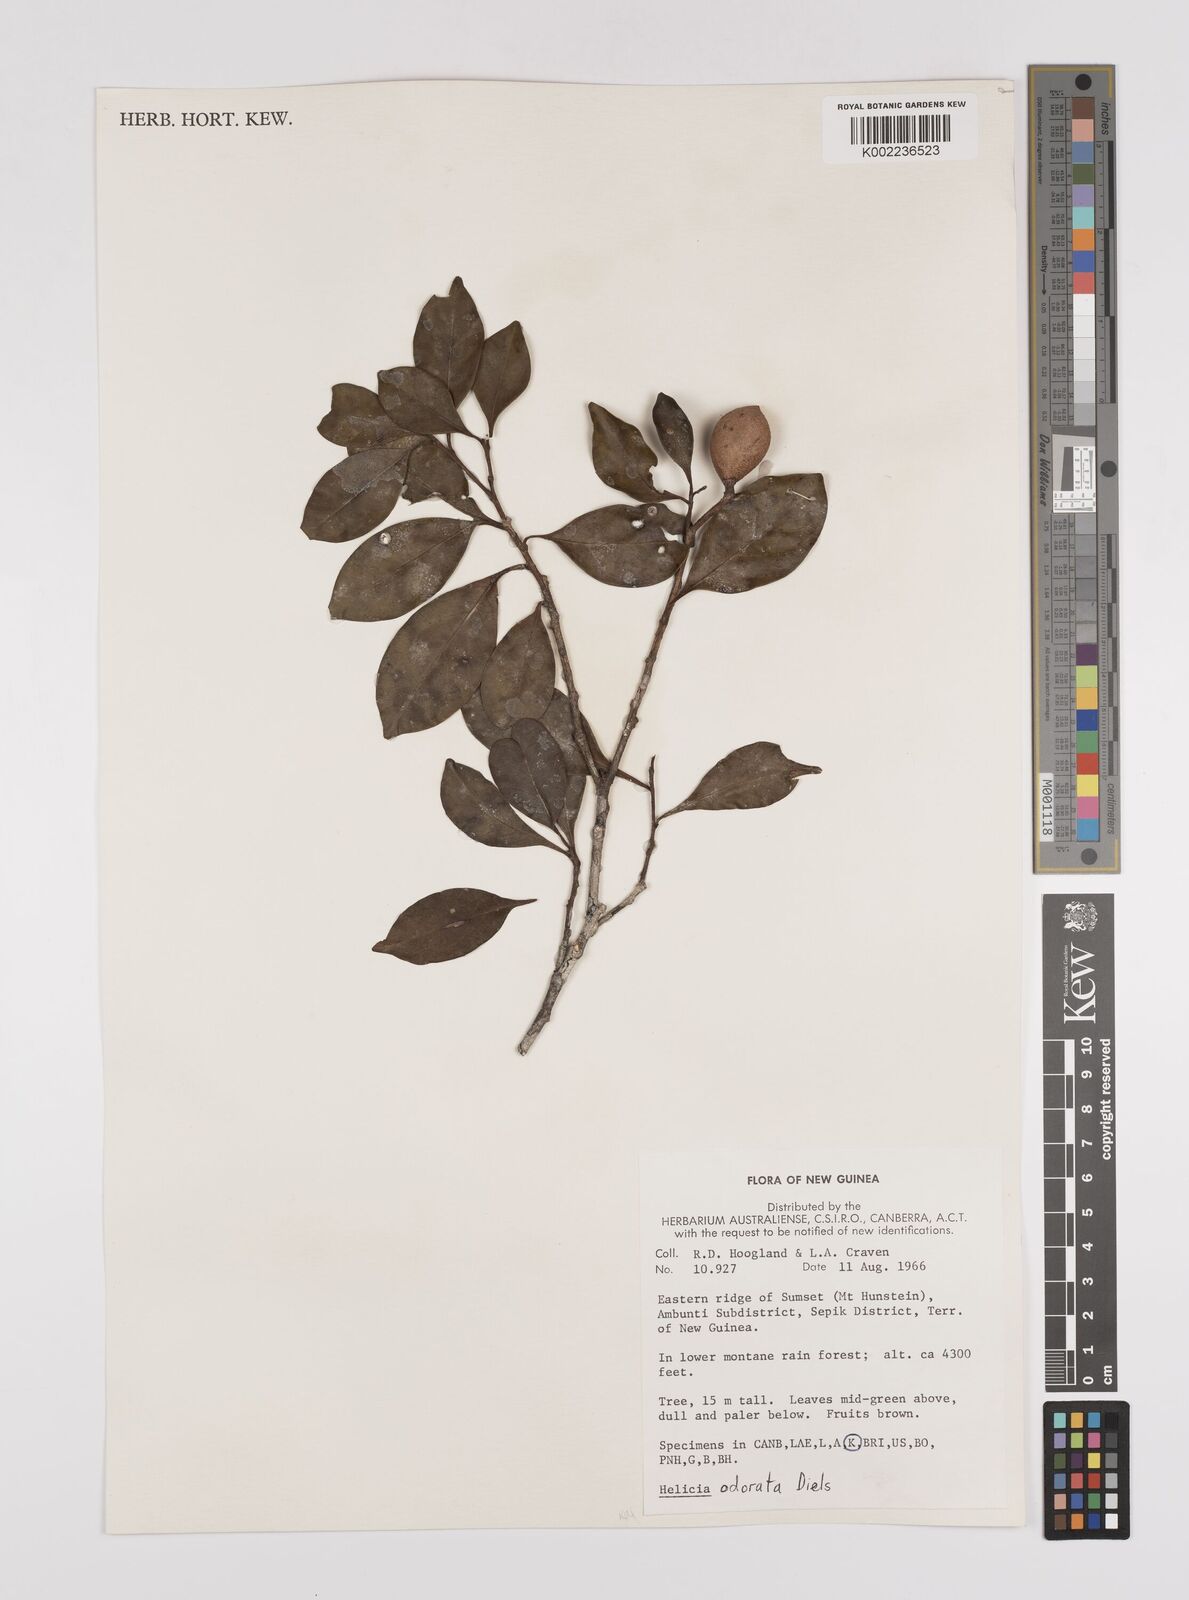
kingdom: Plantae
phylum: Tracheophyta
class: Magnoliopsida
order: Proteales
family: Proteaceae
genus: Helicia
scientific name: Helicia odorata
